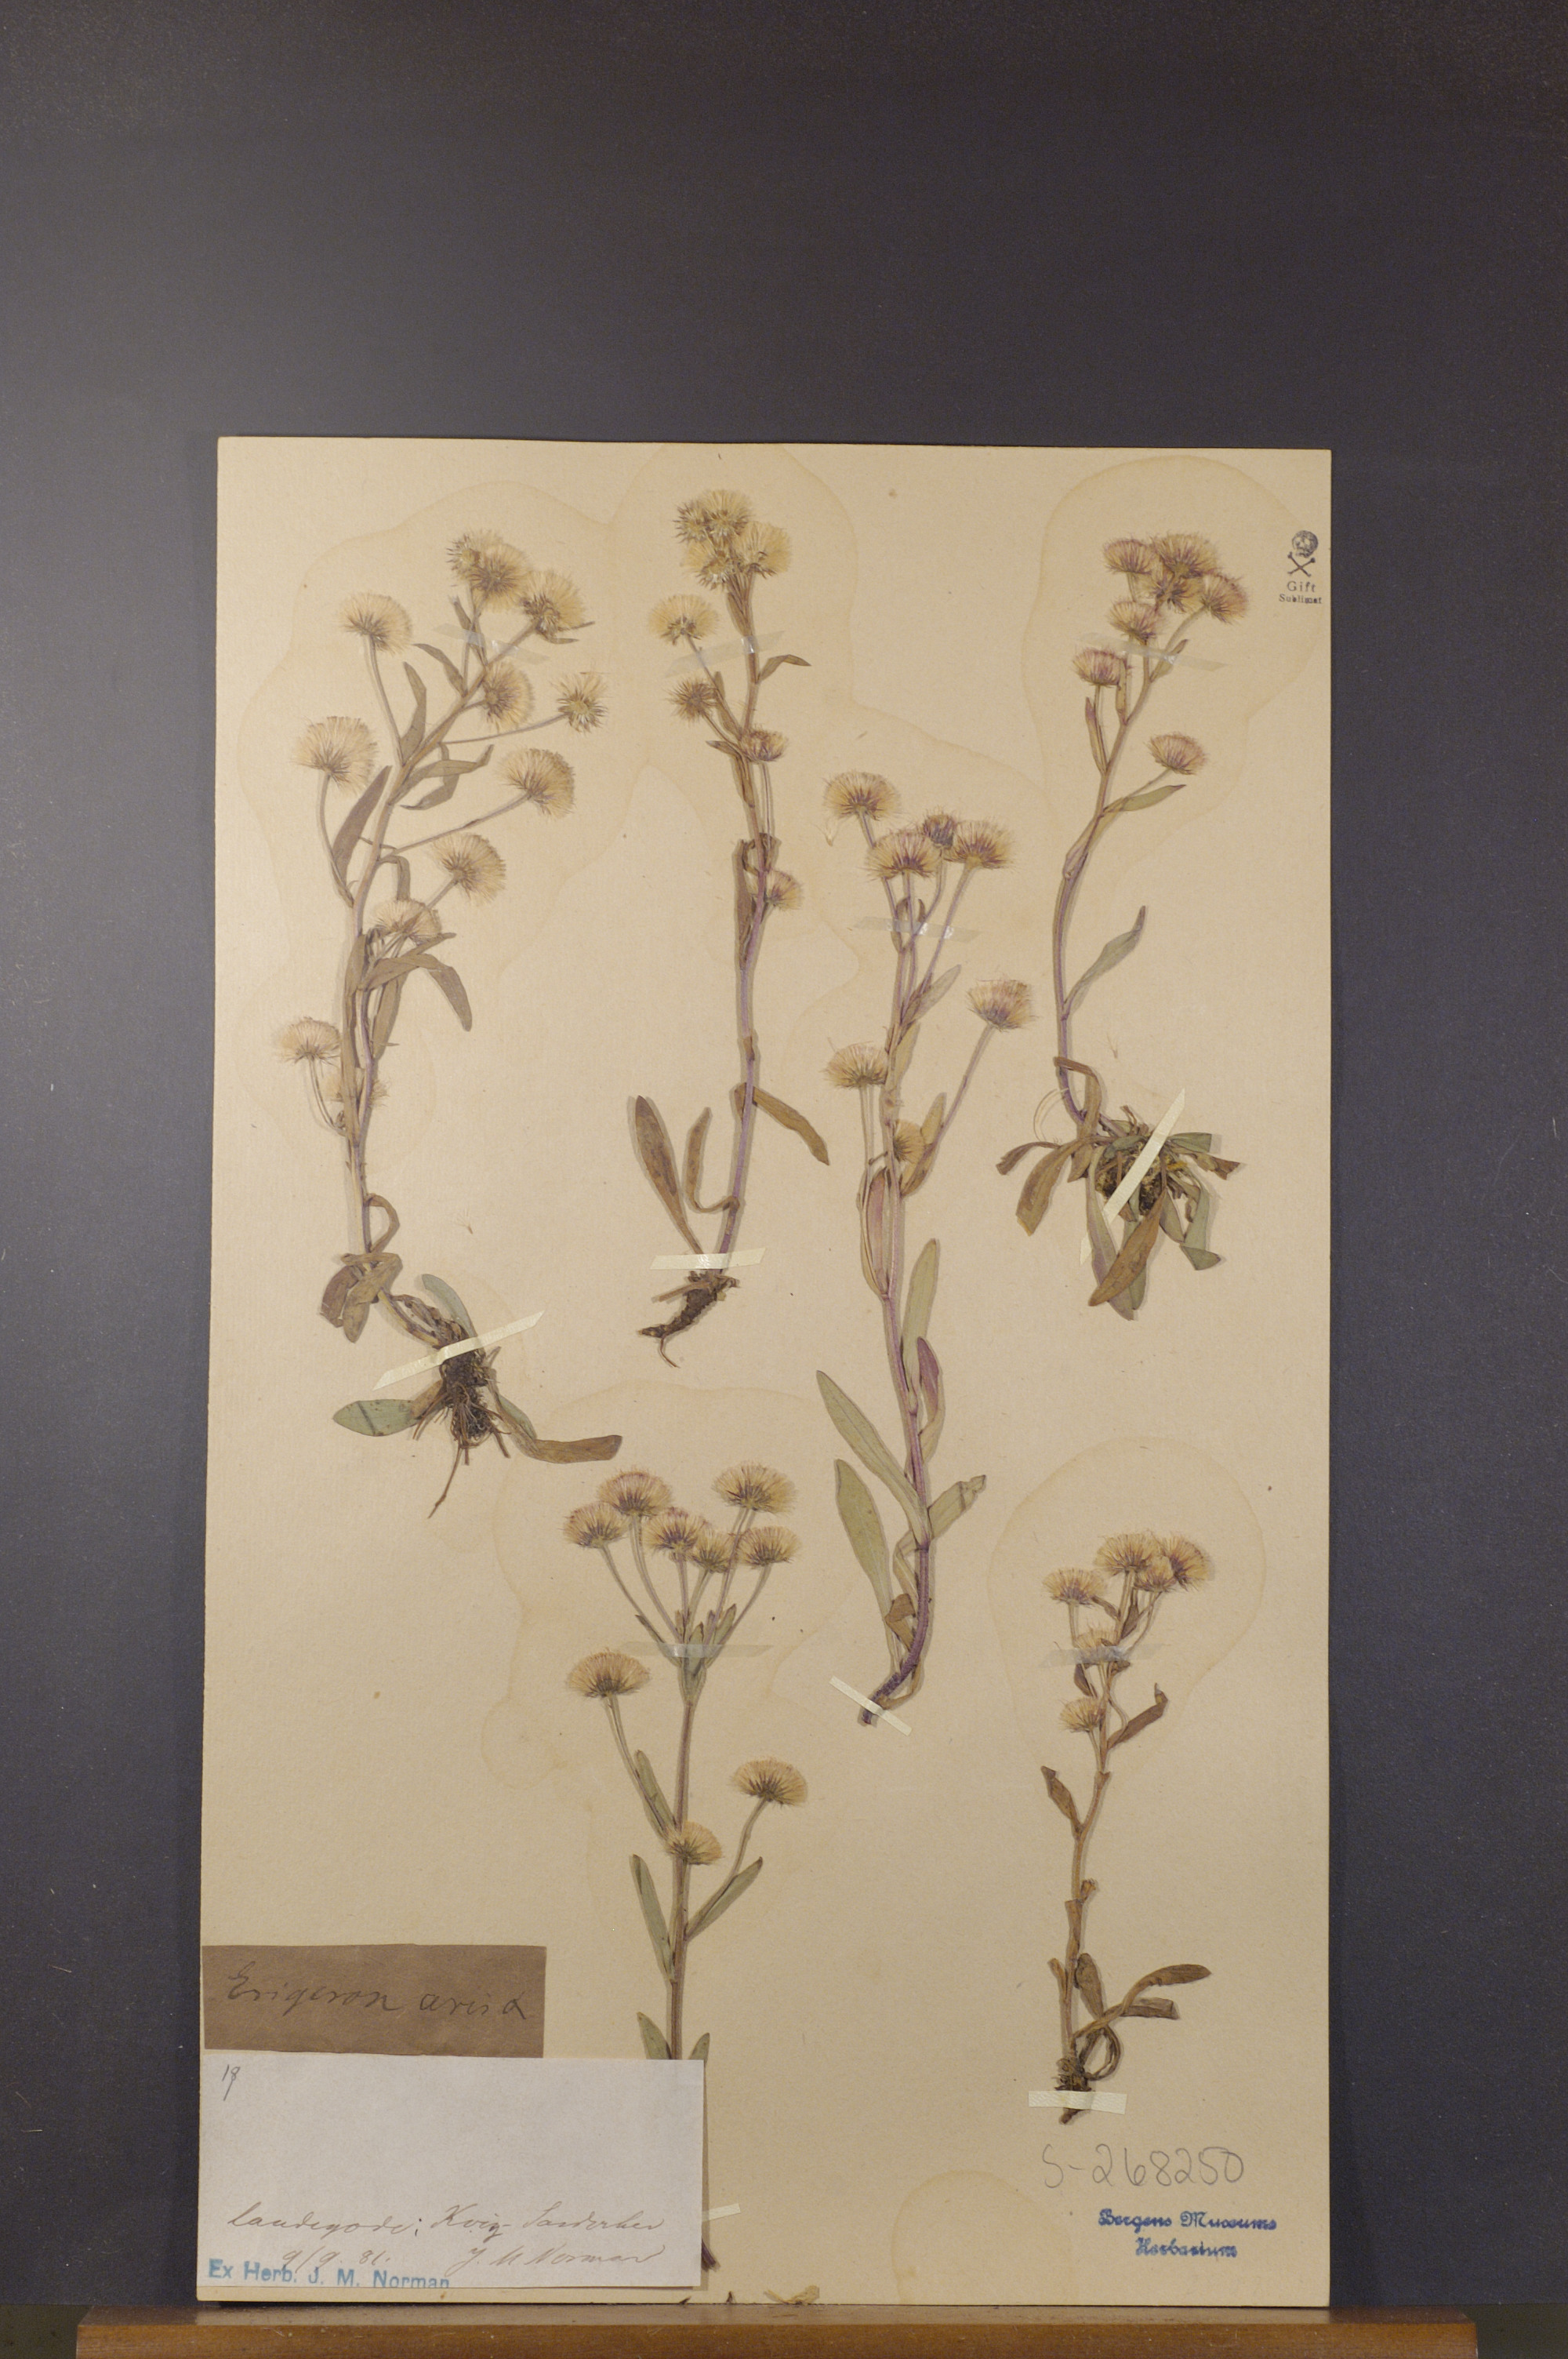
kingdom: Plantae
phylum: Tracheophyta
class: Magnoliopsida
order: Asterales
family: Asteraceae
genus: Erigeron
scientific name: Erigeron acris
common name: Blue fleabane
